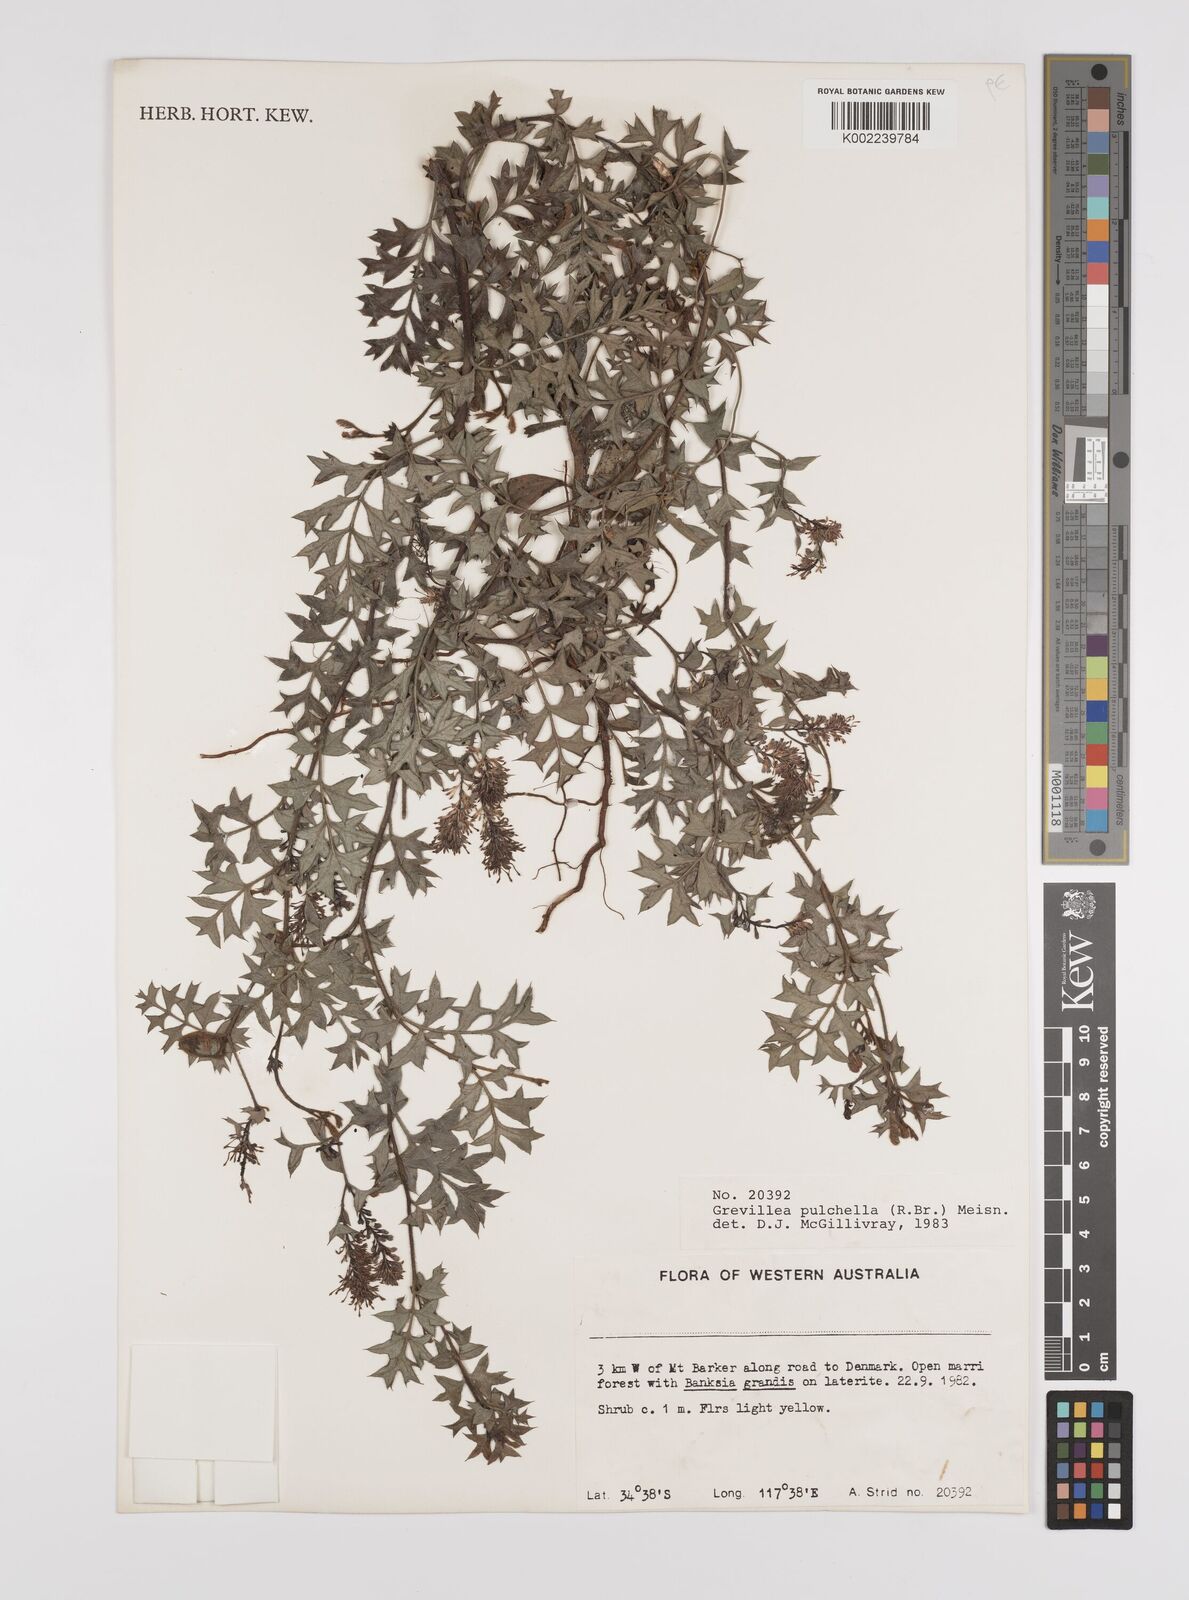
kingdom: Plantae
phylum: Tracheophyta
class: Magnoliopsida
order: Proteales
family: Proteaceae
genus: Grevillea
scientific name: Grevillea pulchella
